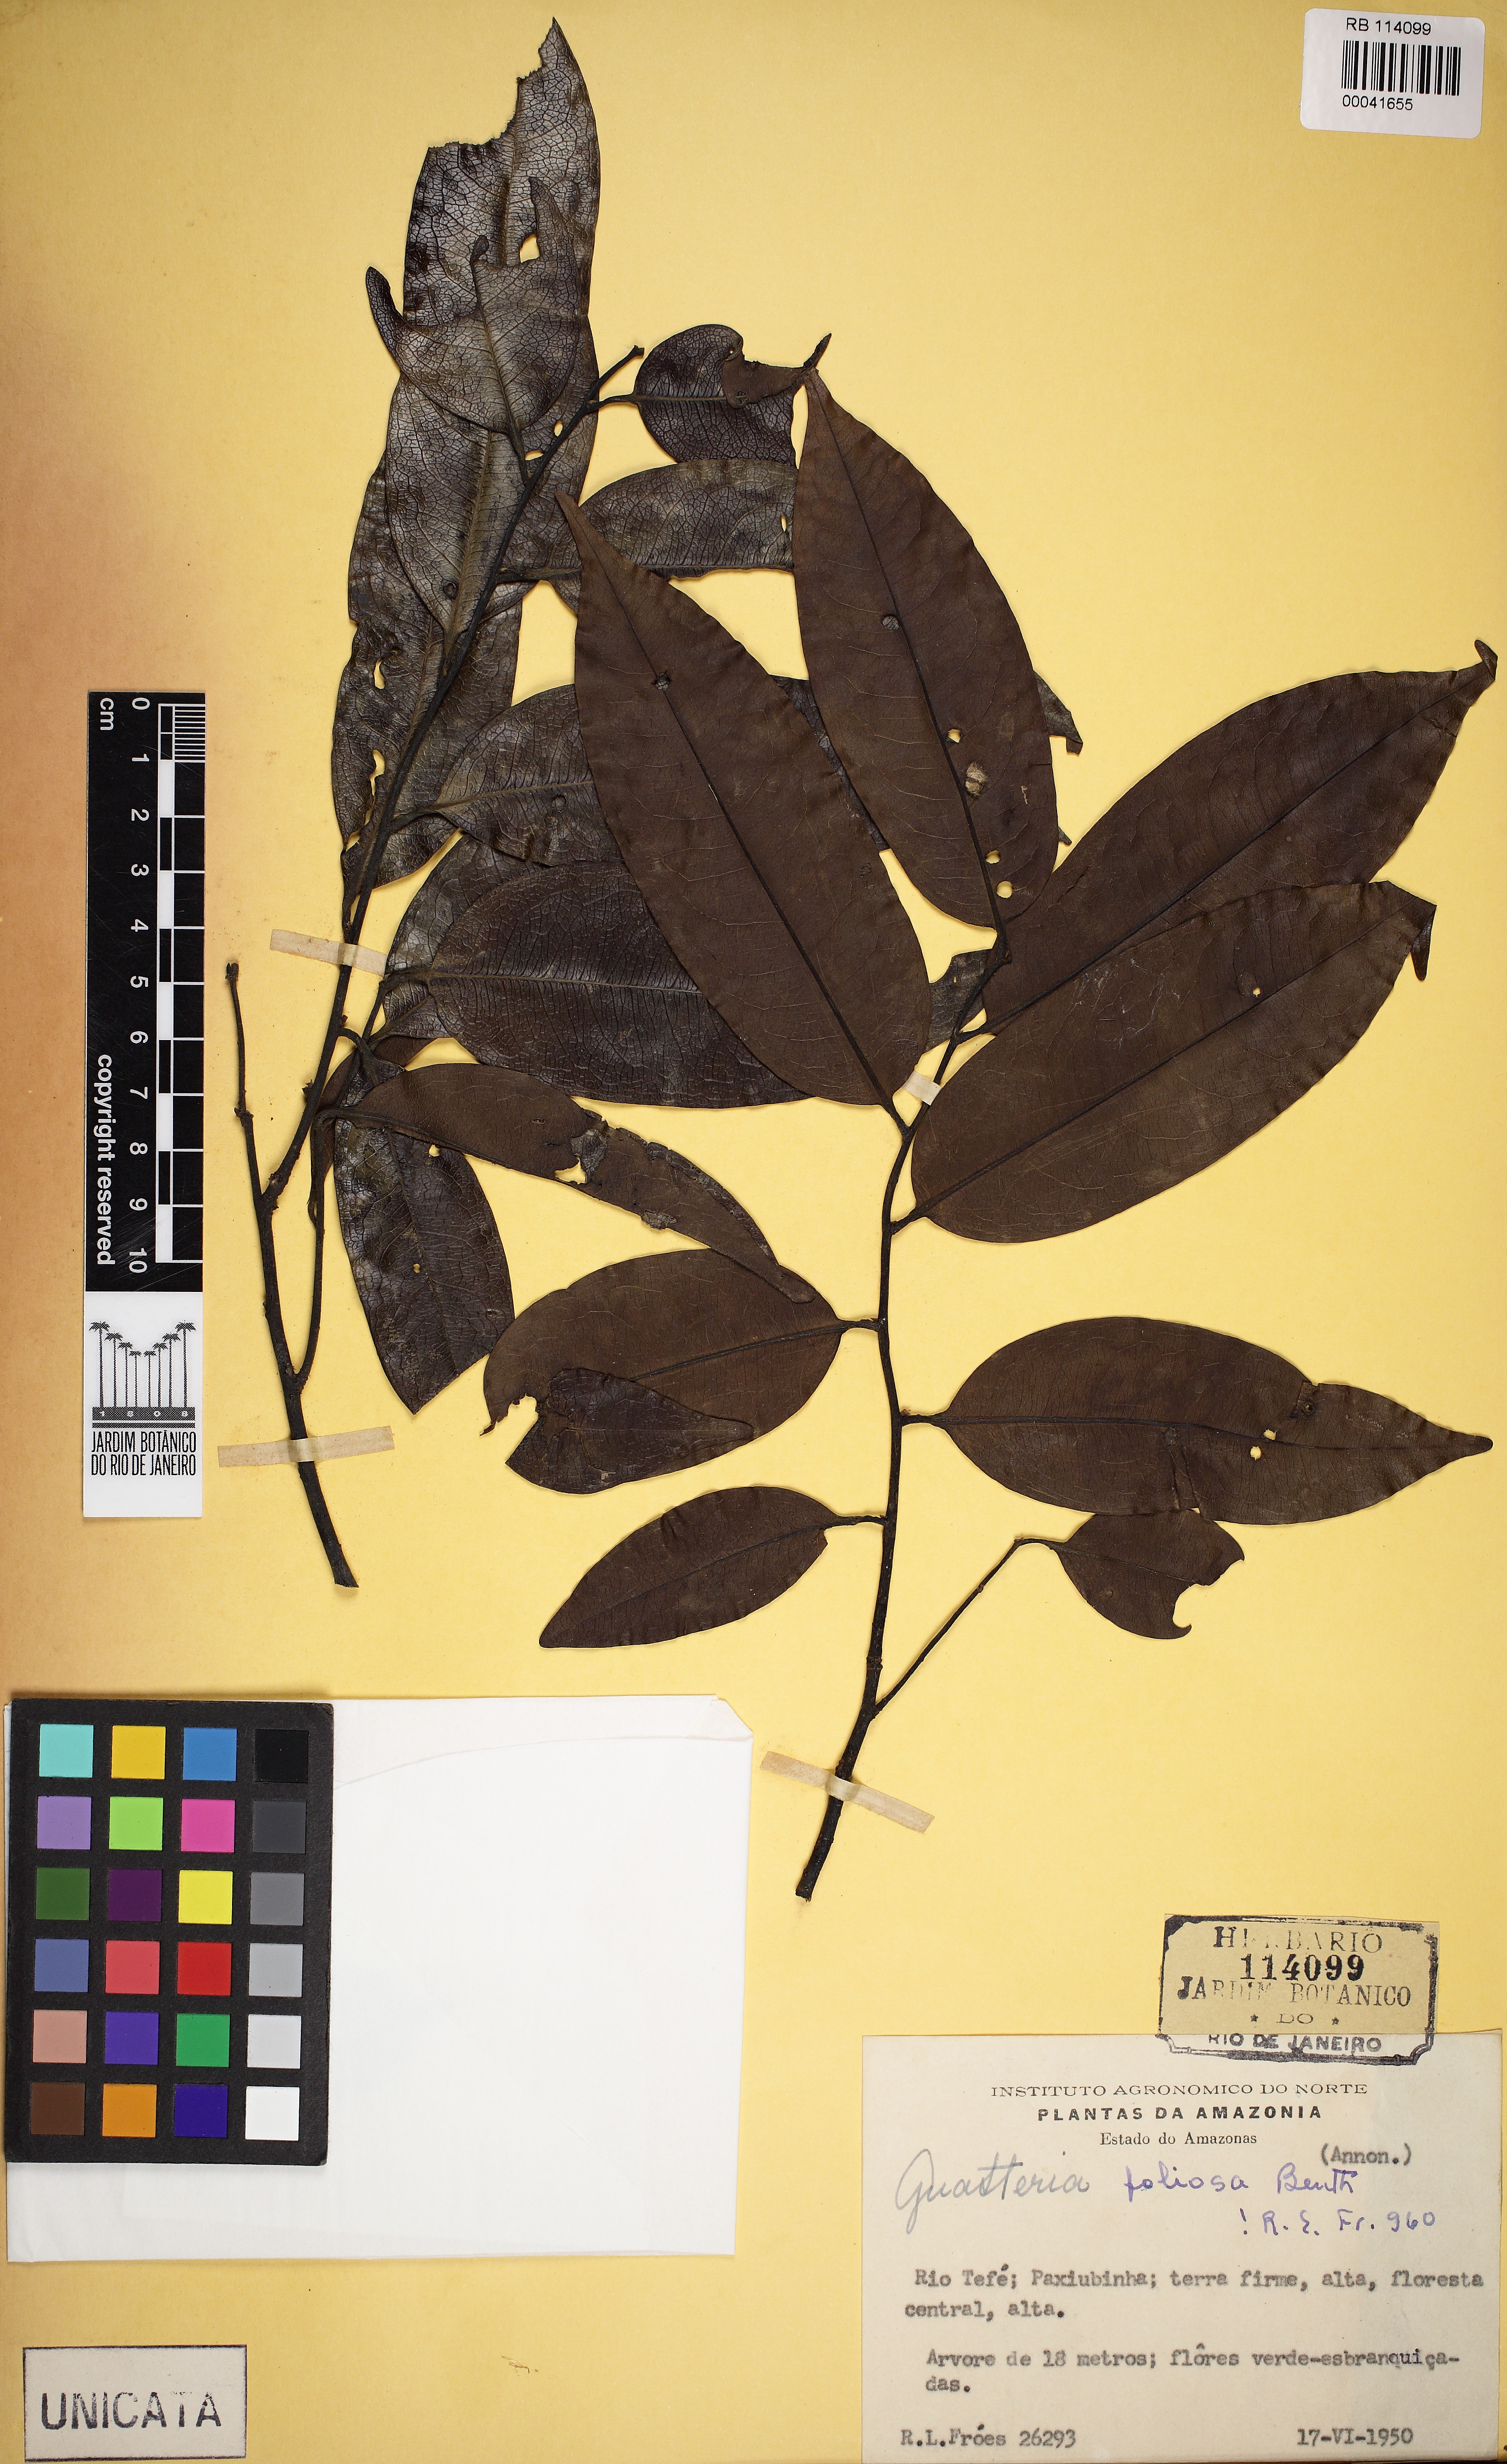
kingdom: Plantae
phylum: Tracheophyta
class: Magnoliopsida
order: Magnoliales
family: Annonaceae
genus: Guatteria
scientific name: Guatteria foliosa
